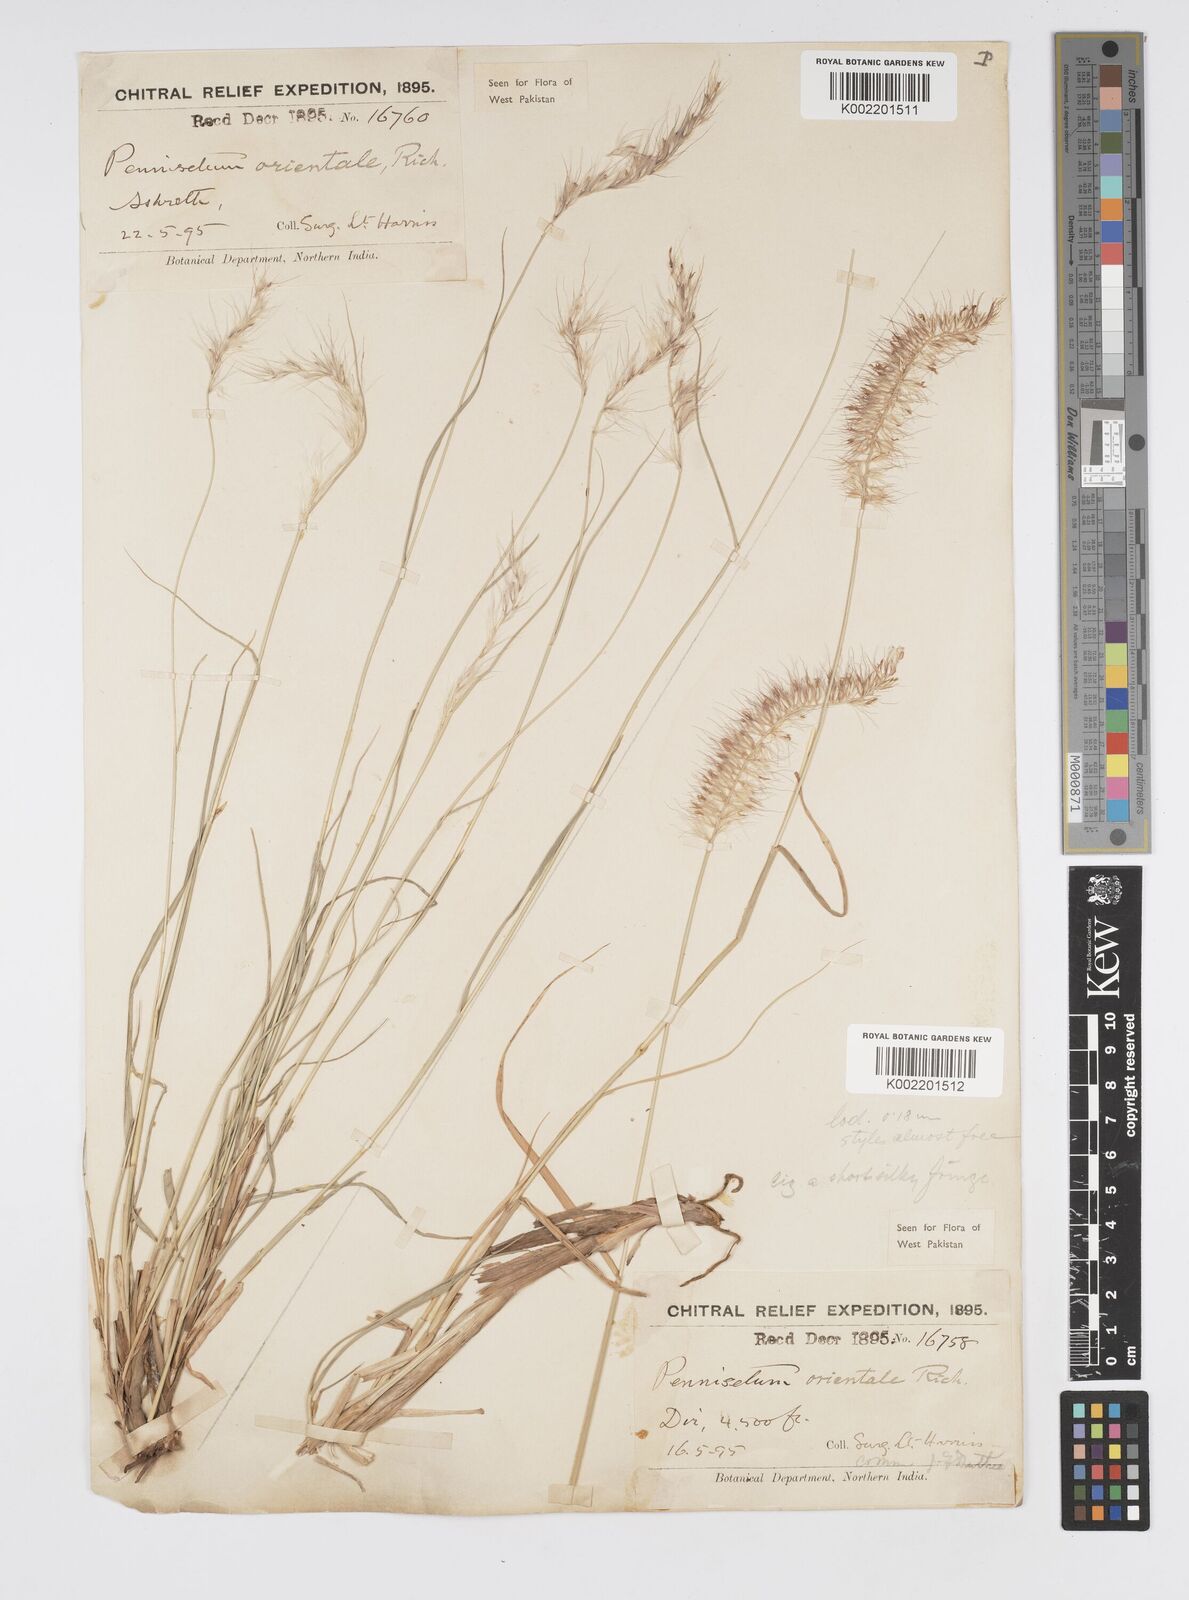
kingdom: Plantae
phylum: Tracheophyta
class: Liliopsida
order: Poales
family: Poaceae
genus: Cenchrus
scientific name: Cenchrus orientalis
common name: Oriental fountain grass
